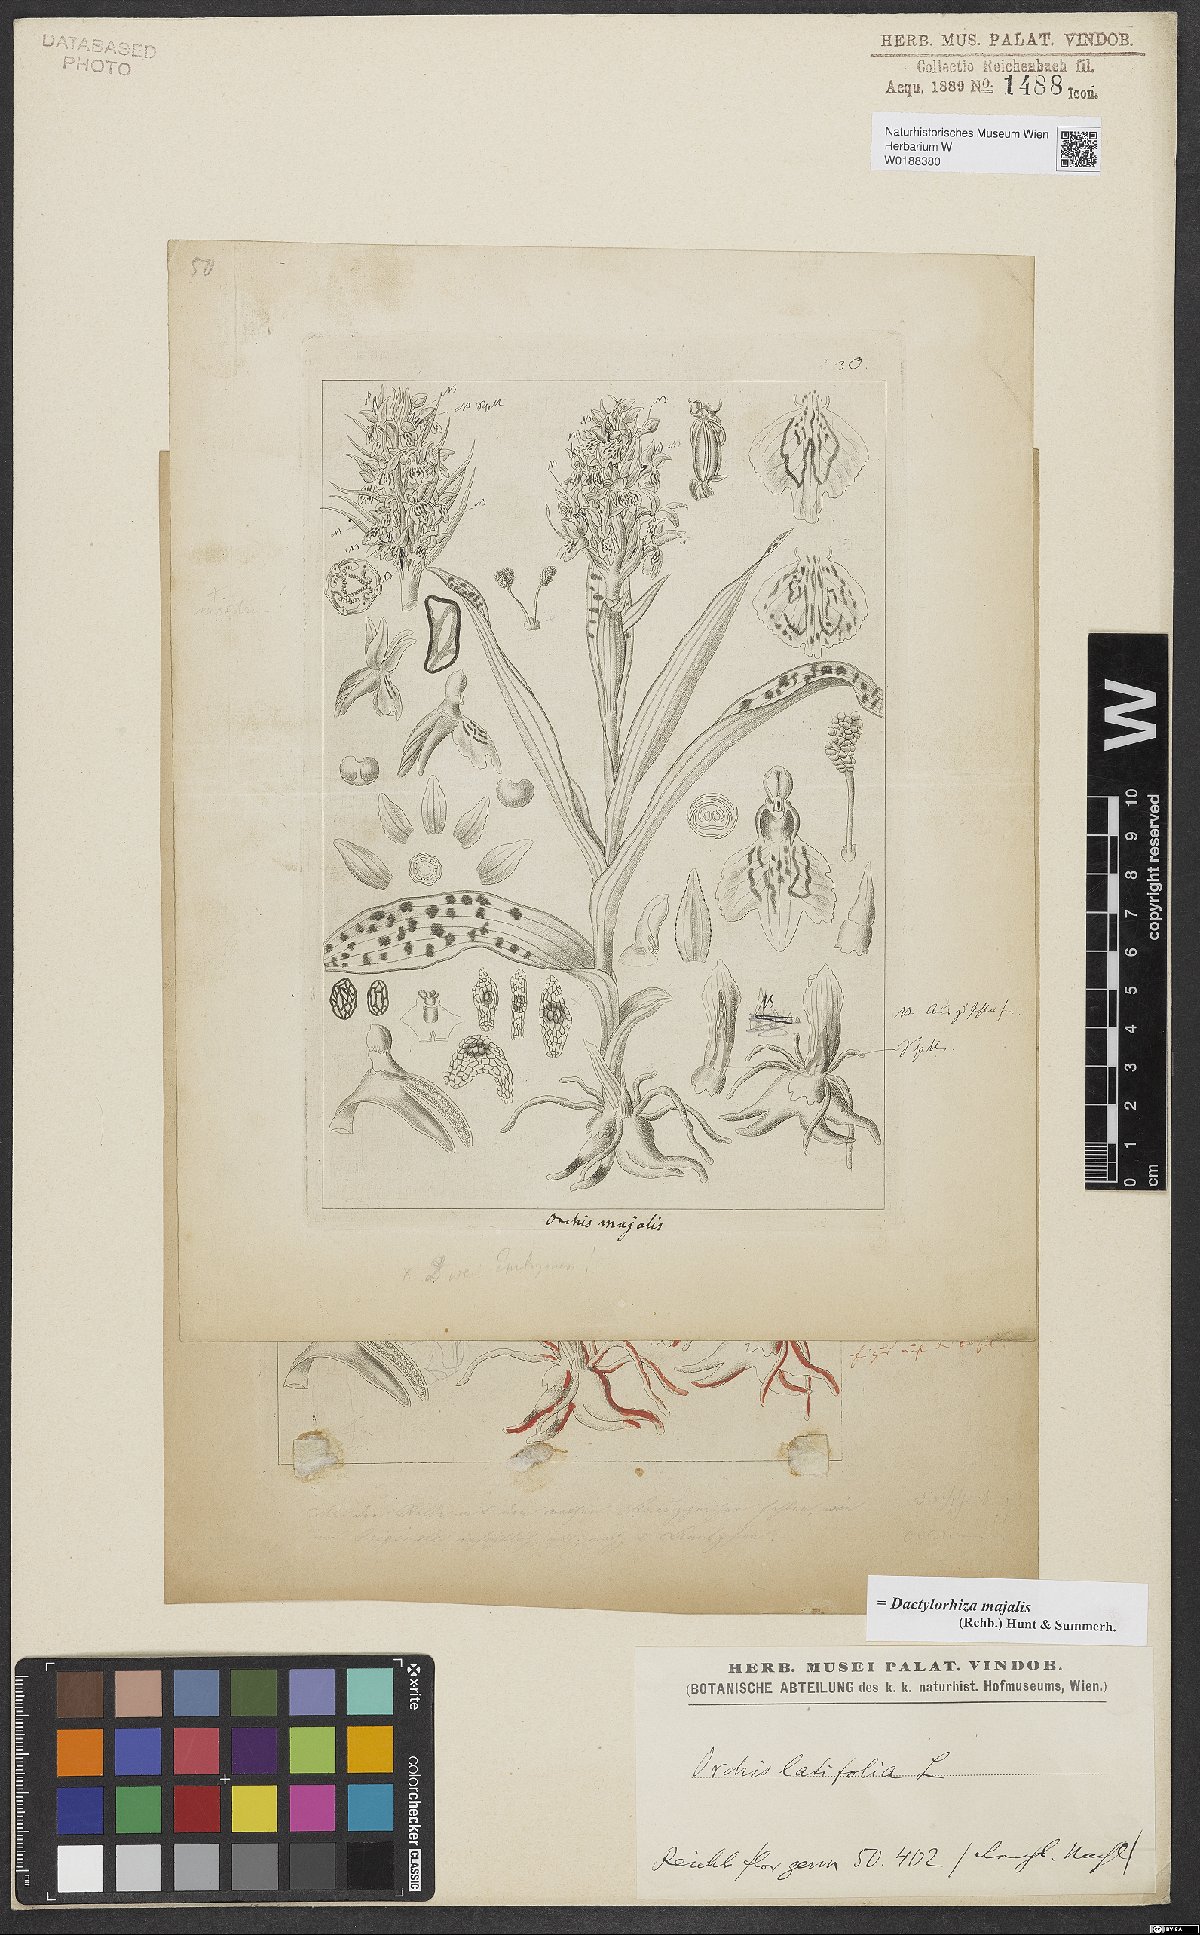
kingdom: Plantae
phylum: Tracheophyta
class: Liliopsida
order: Asparagales
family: Orchidaceae
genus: Dactylorhiza
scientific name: Dactylorhiza majalis
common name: Marsh orchid
